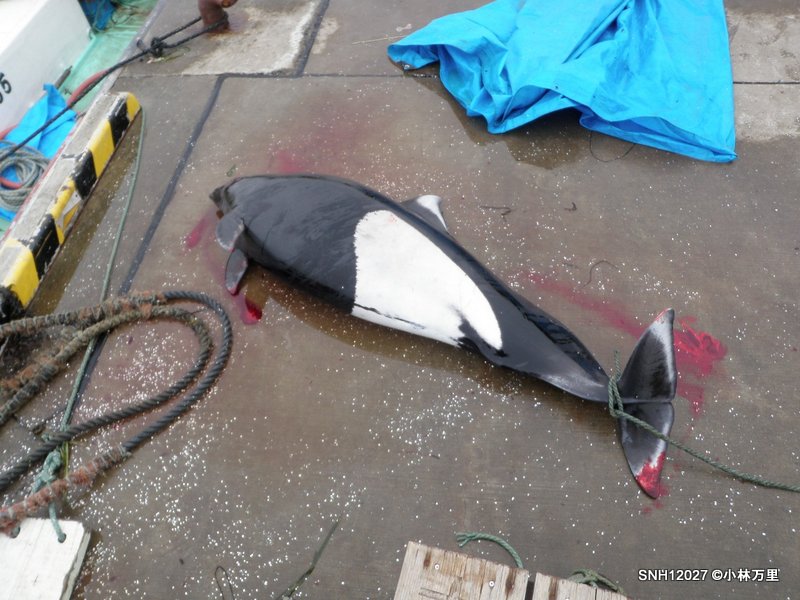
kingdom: Animalia
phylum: Chordata
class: Mammalia
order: Cetacea
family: Phocoenidae
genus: Phocoenoides
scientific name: Phocoenoides dalli
